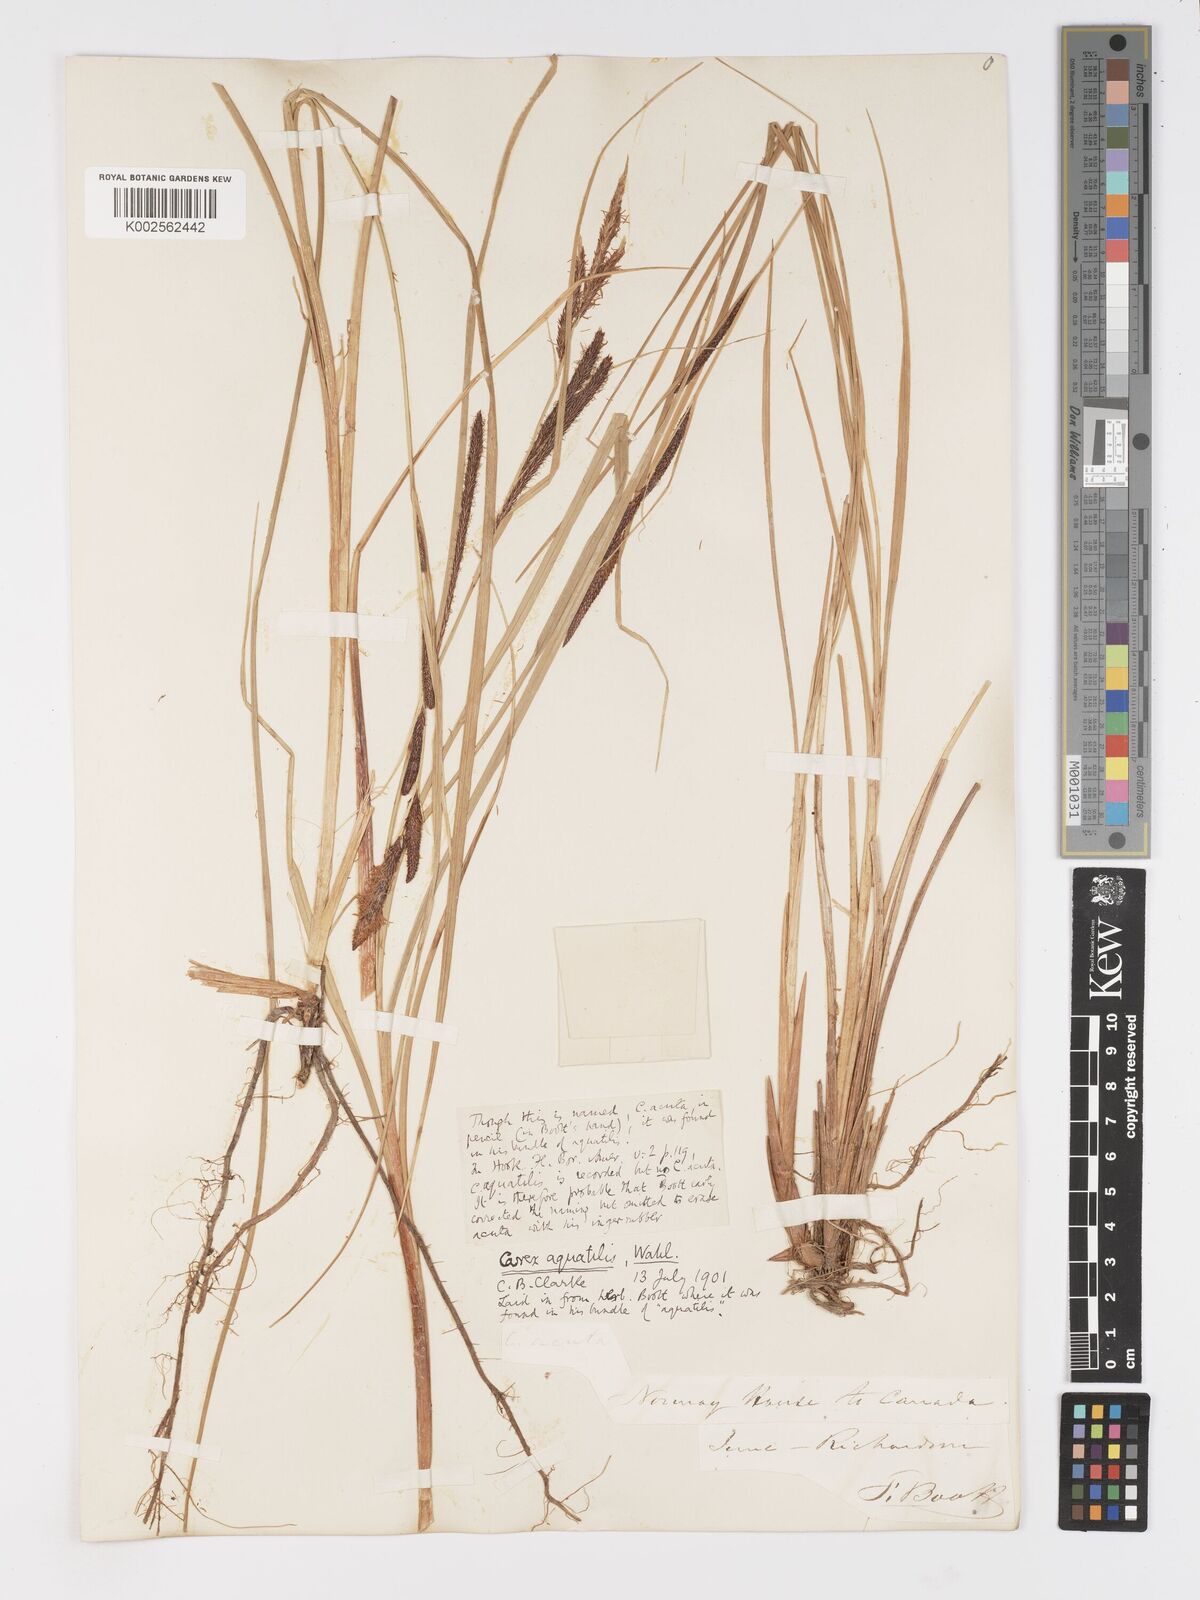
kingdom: Plantae
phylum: Tracheophyta
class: Liliopsida
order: Poales
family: Cyperaceae
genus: Carex
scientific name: Carex
